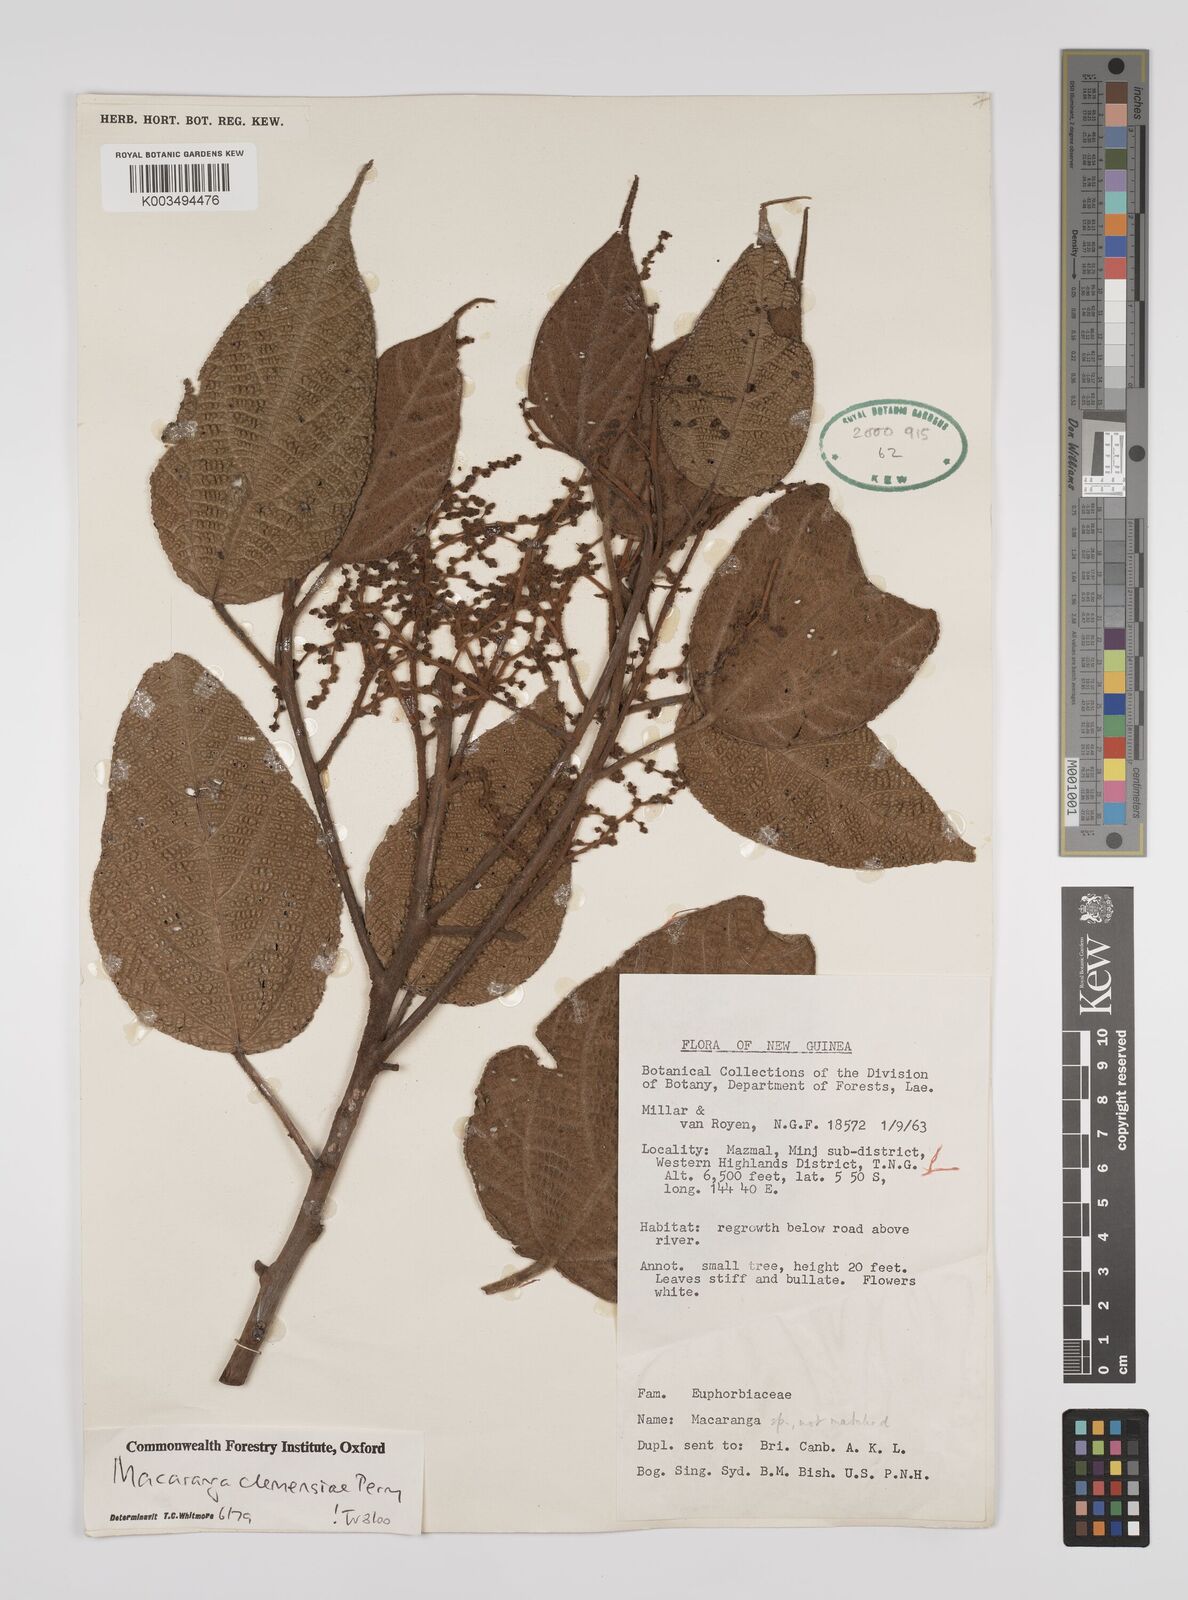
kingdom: Plantae
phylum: Tracheophyta
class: Magnoliopsida
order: Malpighiales
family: Euphorbiaceae
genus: Macaranga
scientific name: Macaranga clemensiae
